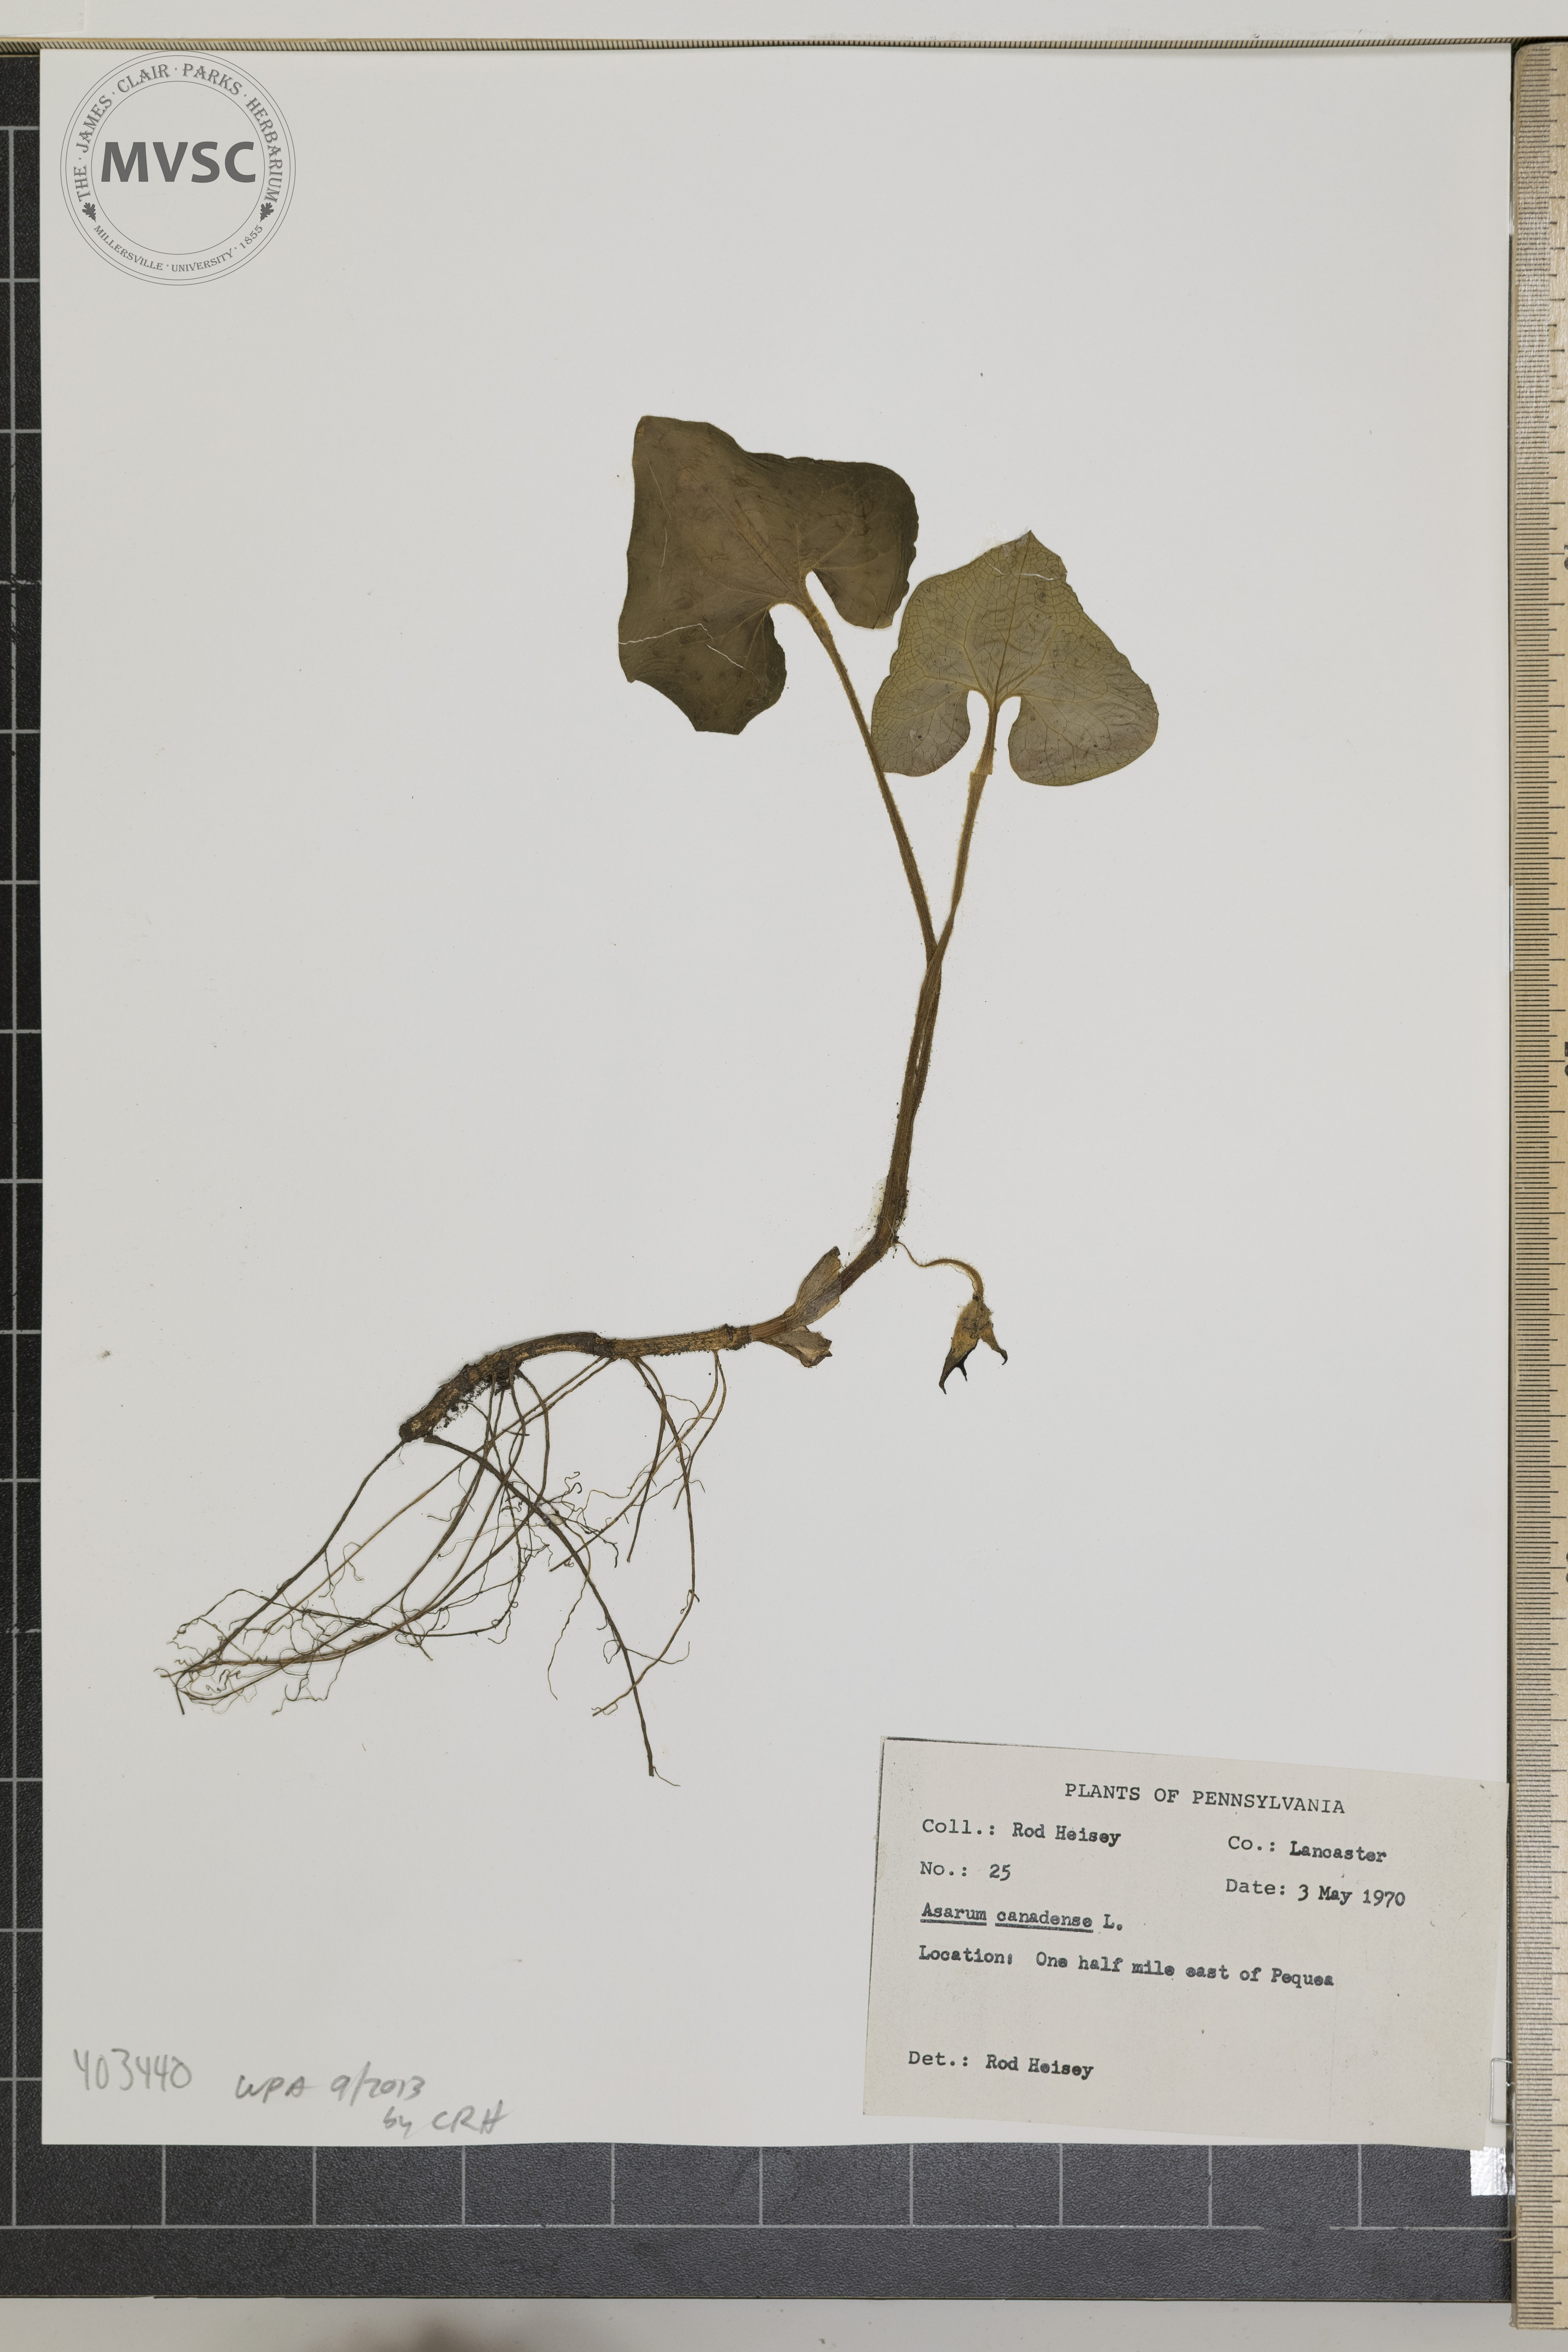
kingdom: Plantae
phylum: Tracheophyta
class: Magnoliopsida
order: Piperales
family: Aristolochiaceae
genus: Asarum
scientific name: Asarum canadense
